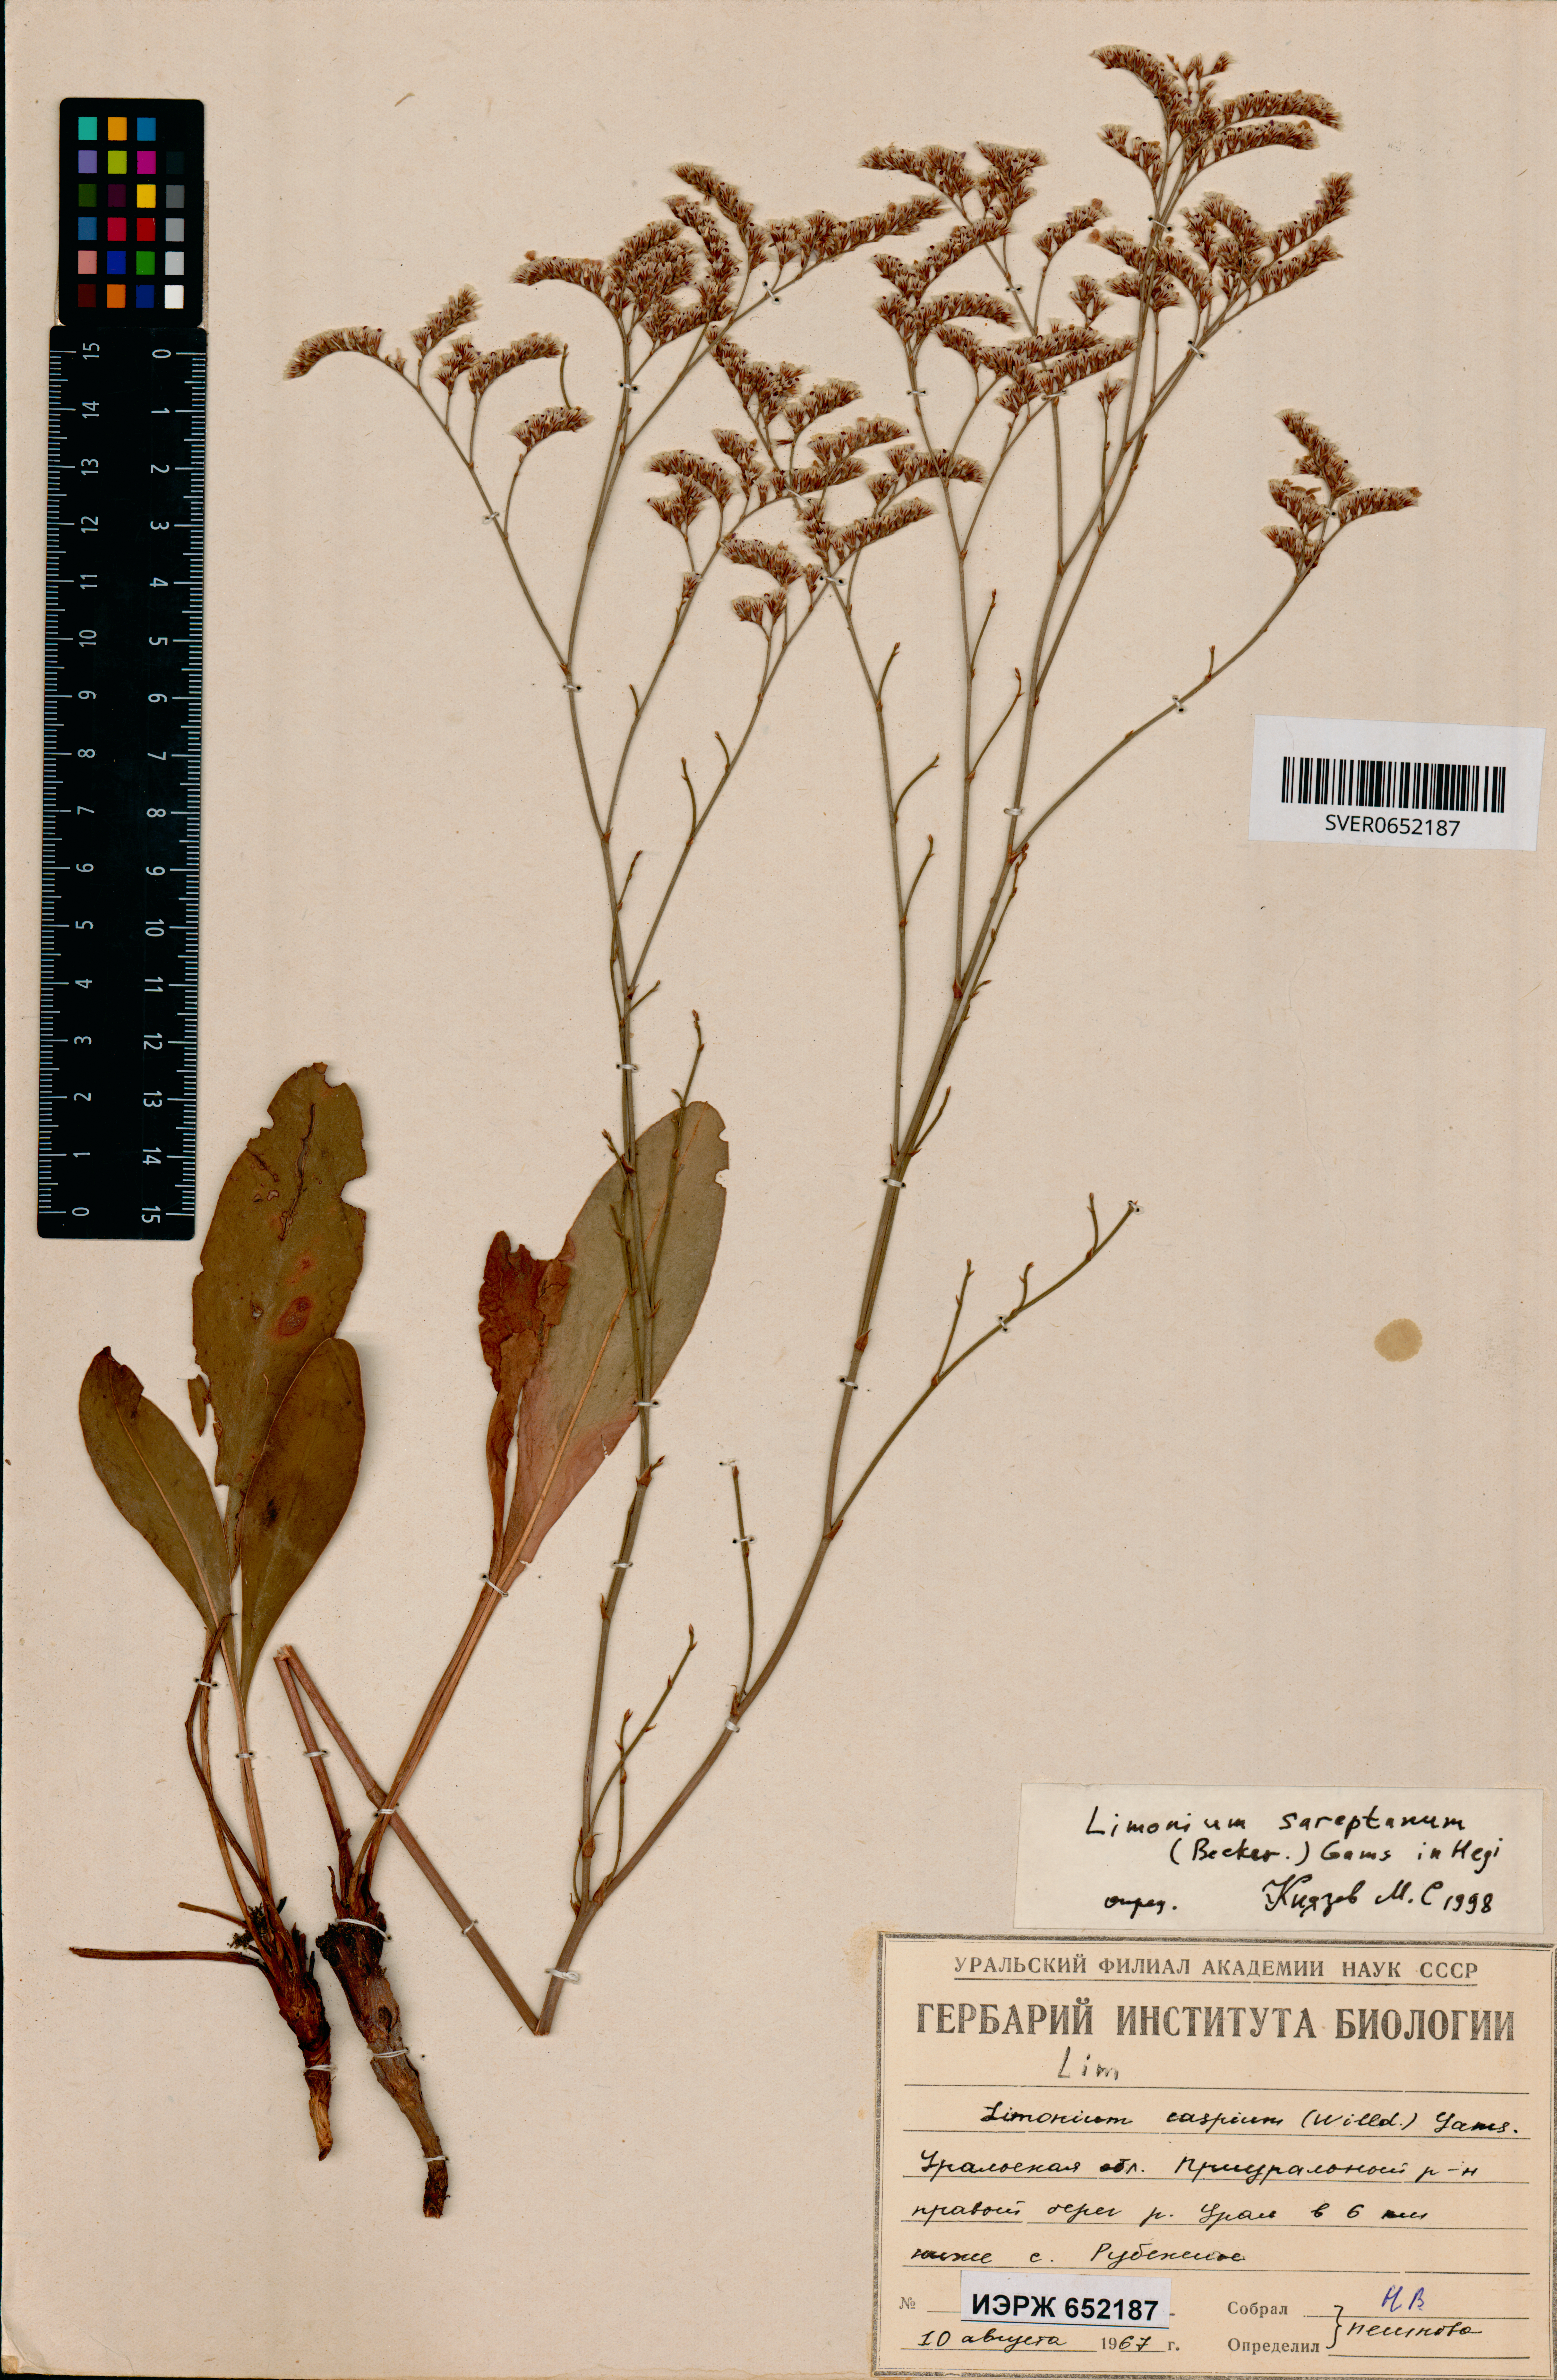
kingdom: Plantae
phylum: Tracheophyta
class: Magnoliopsida
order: Caryophyllales
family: Plumbaginaceae
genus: Limonium
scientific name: Limonium sareptanum
